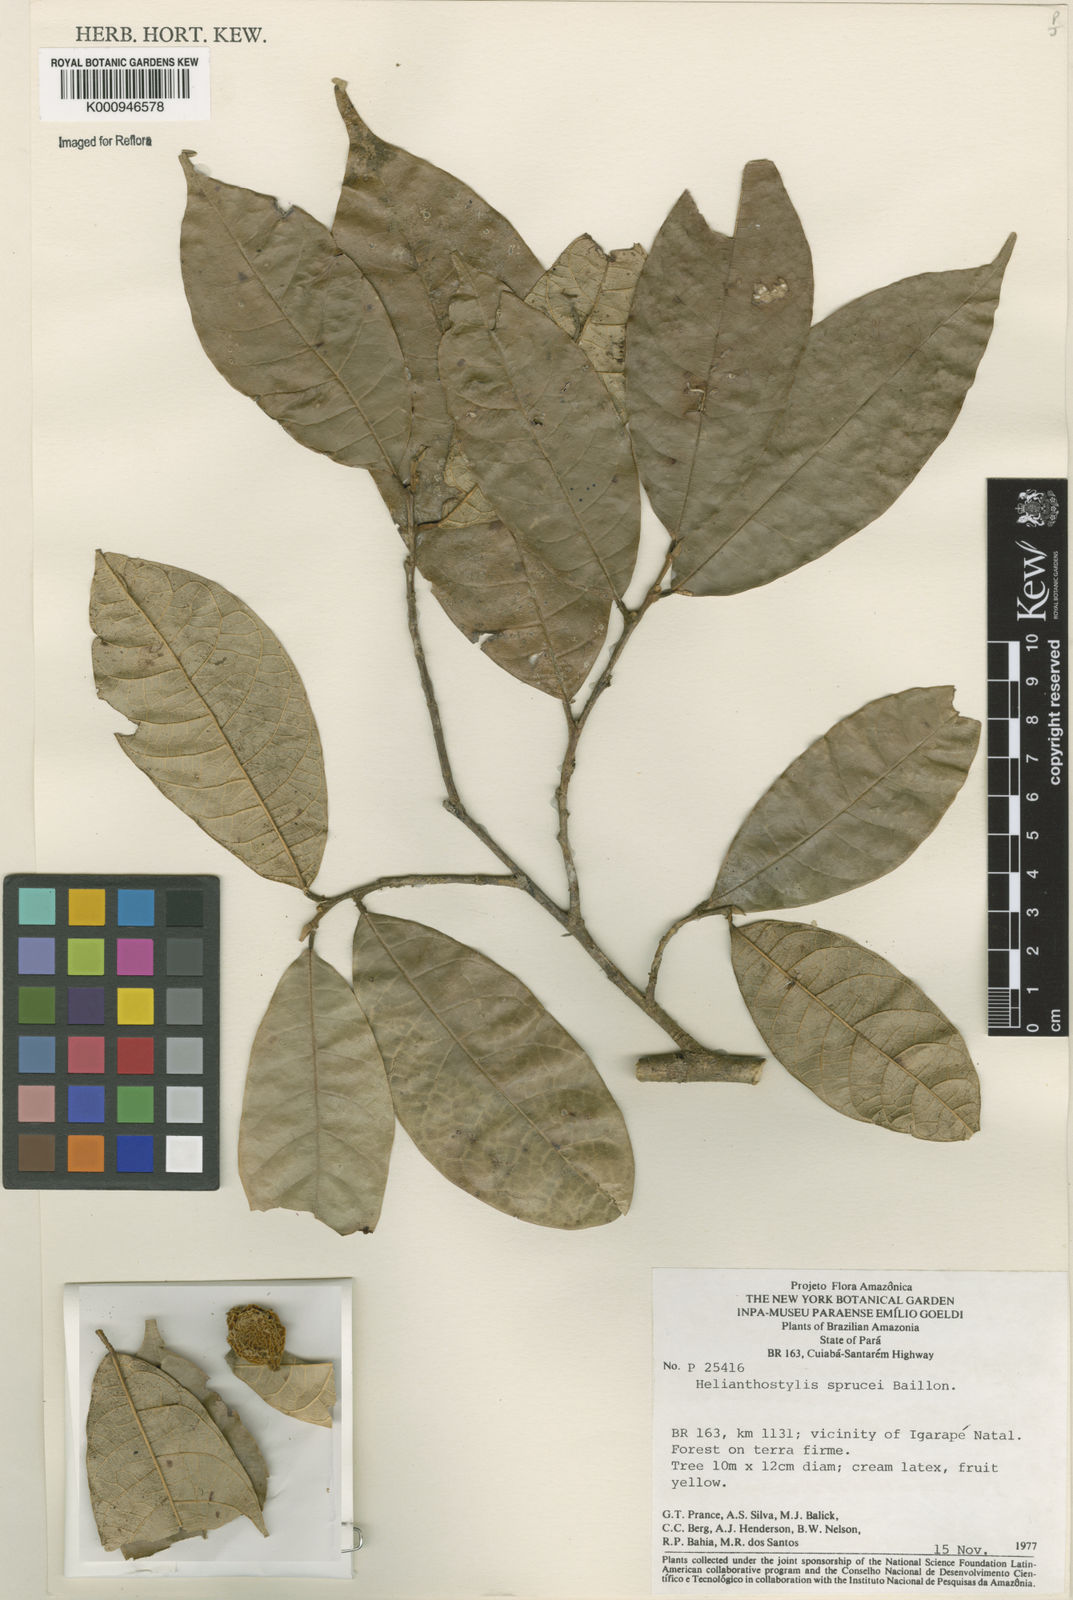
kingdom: Plantae
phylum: Tracheophyta
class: Magnoliopsida
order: Rosales
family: Moraceae
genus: Brosimum
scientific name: Brosimum sprucei
